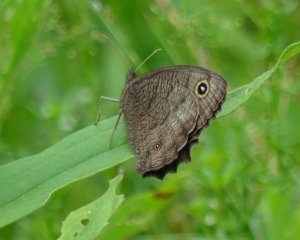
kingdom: Animalia
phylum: Arthropoda
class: Insecta
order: Lepidoptera
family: Nymphalidae
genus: Cercyonis
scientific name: Cercyonis pegala
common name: Common Wood-Nymph
